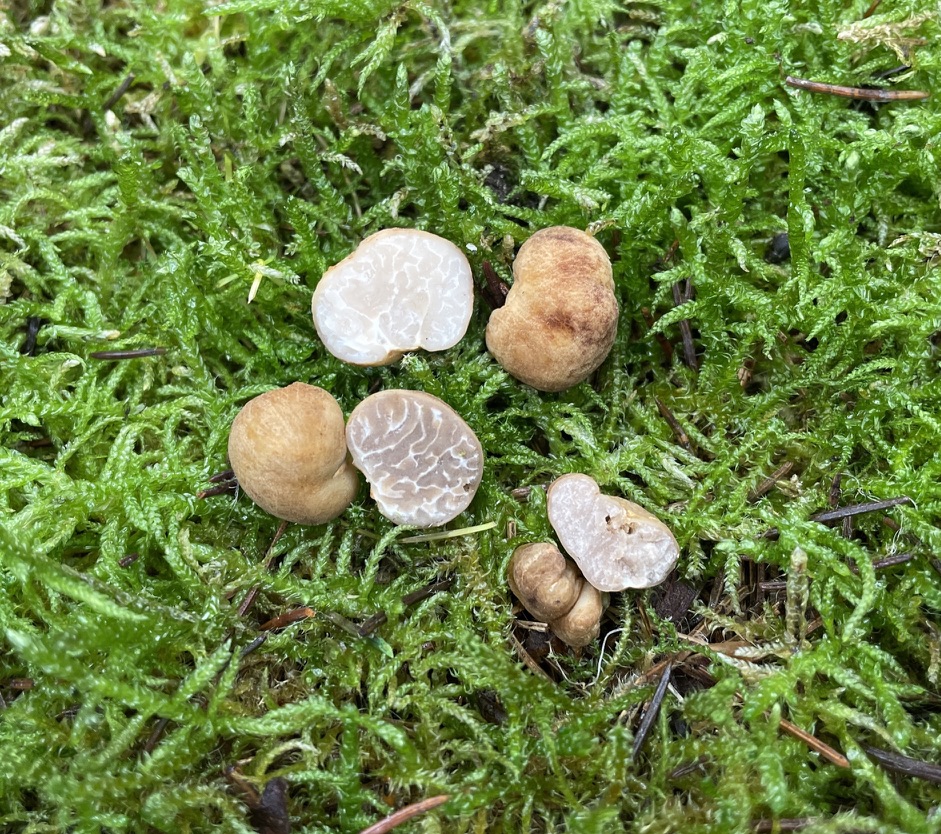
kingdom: Fungi
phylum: Ascomycota
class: Pezizomycetes
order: Pezizales
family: Tuberaceae
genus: Tuber
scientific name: Tuber rufum
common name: rødbrun trøffel
